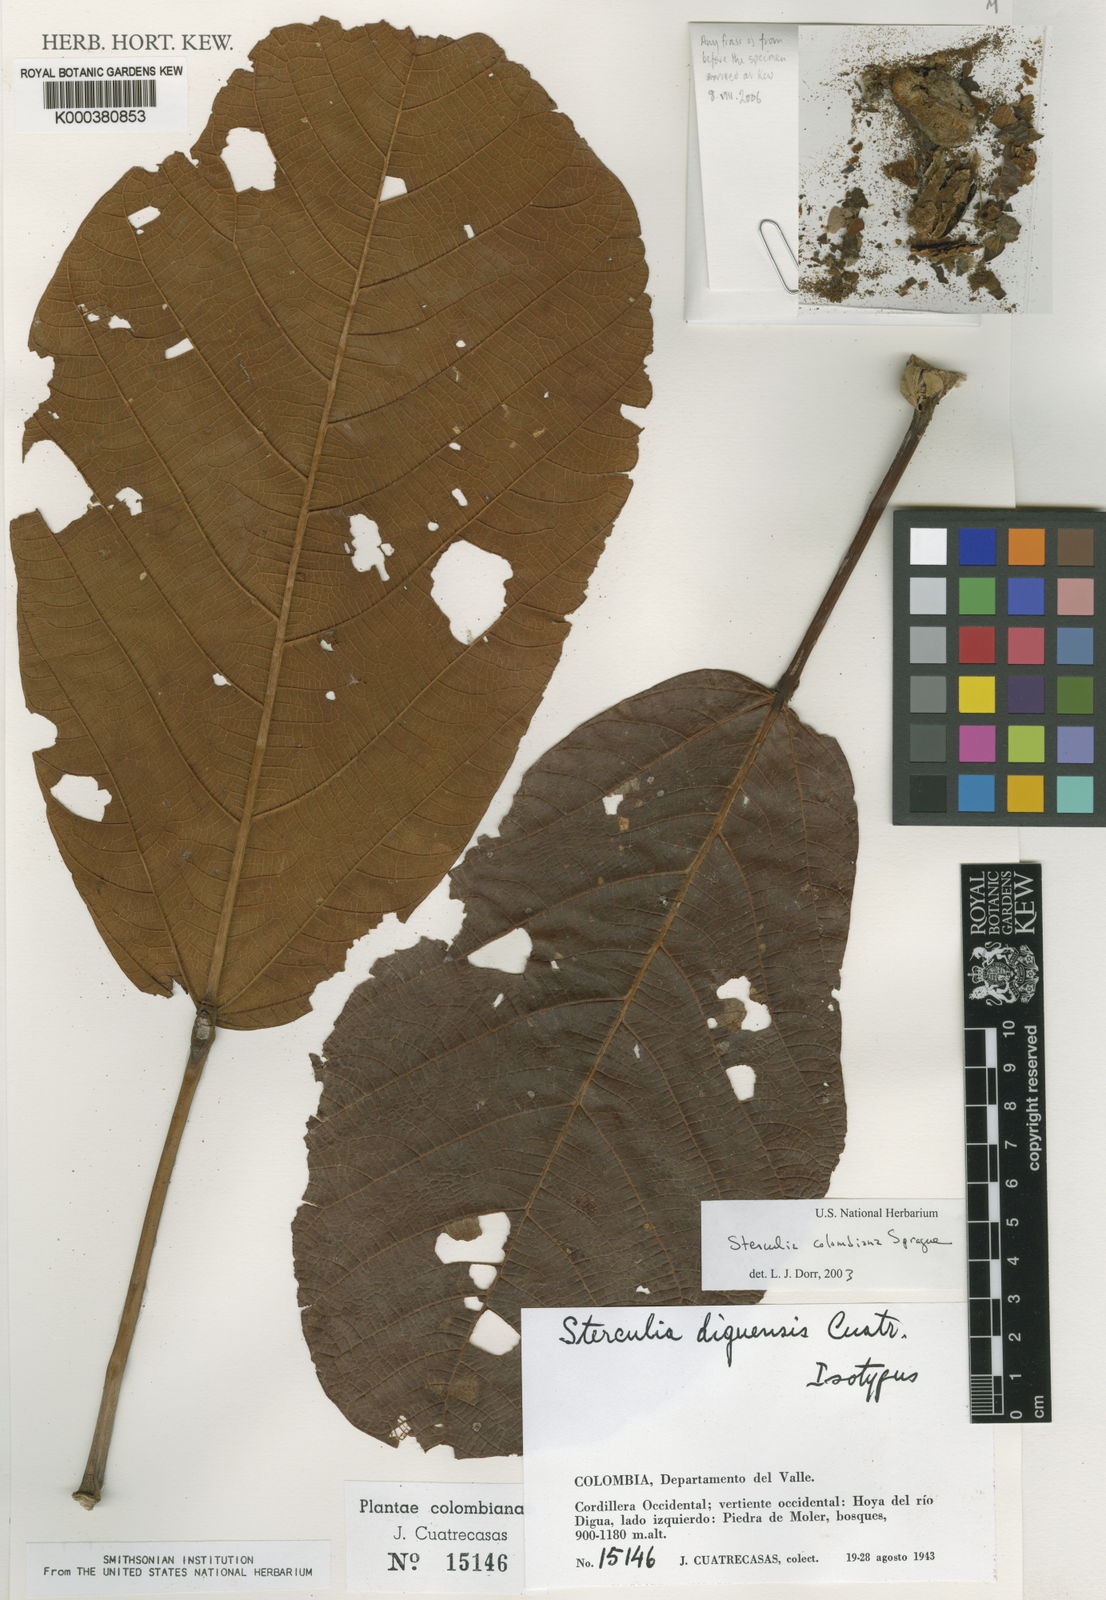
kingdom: Plantae
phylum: Tracheophyta
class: Magnoliopsida
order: Malvales
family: Malvaceae
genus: Sterculia
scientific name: Sterculia colombiana
